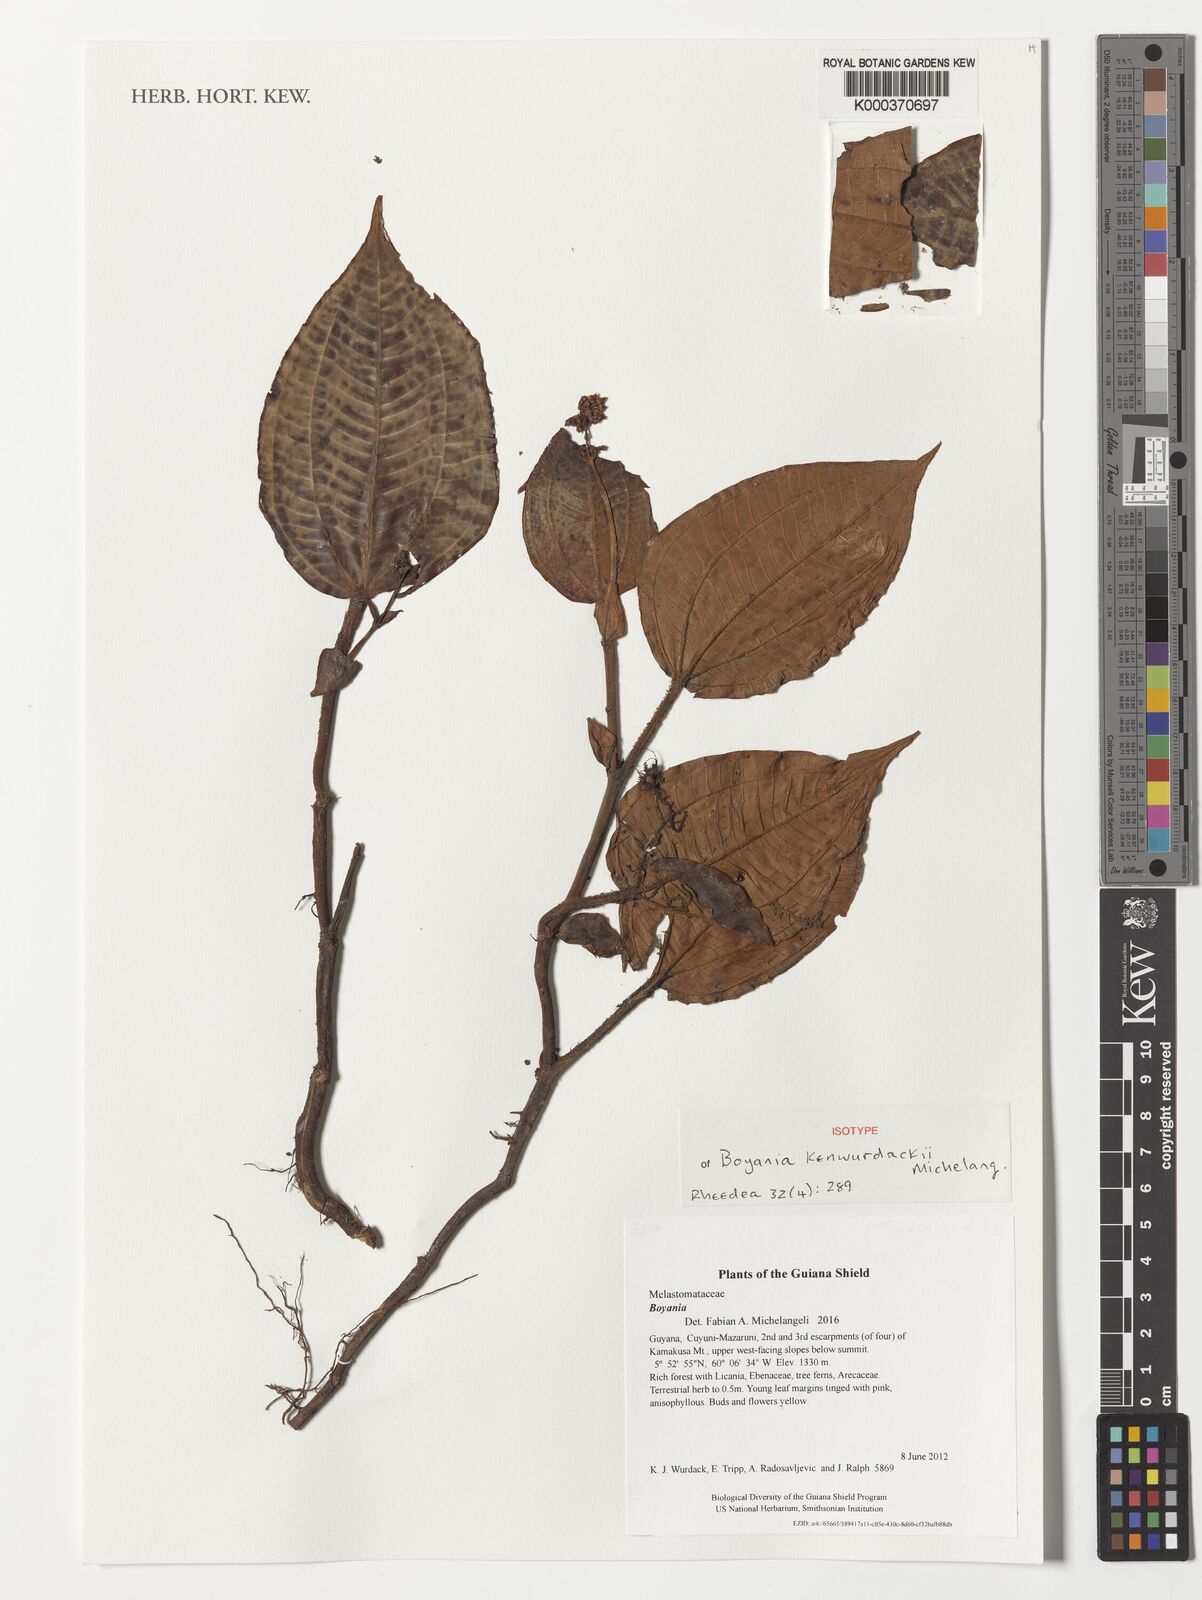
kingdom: Plantae
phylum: Tracheophyta
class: Magnoliopsida
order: Myrtales
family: Melastomataceae
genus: Boyania
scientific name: Boyania
